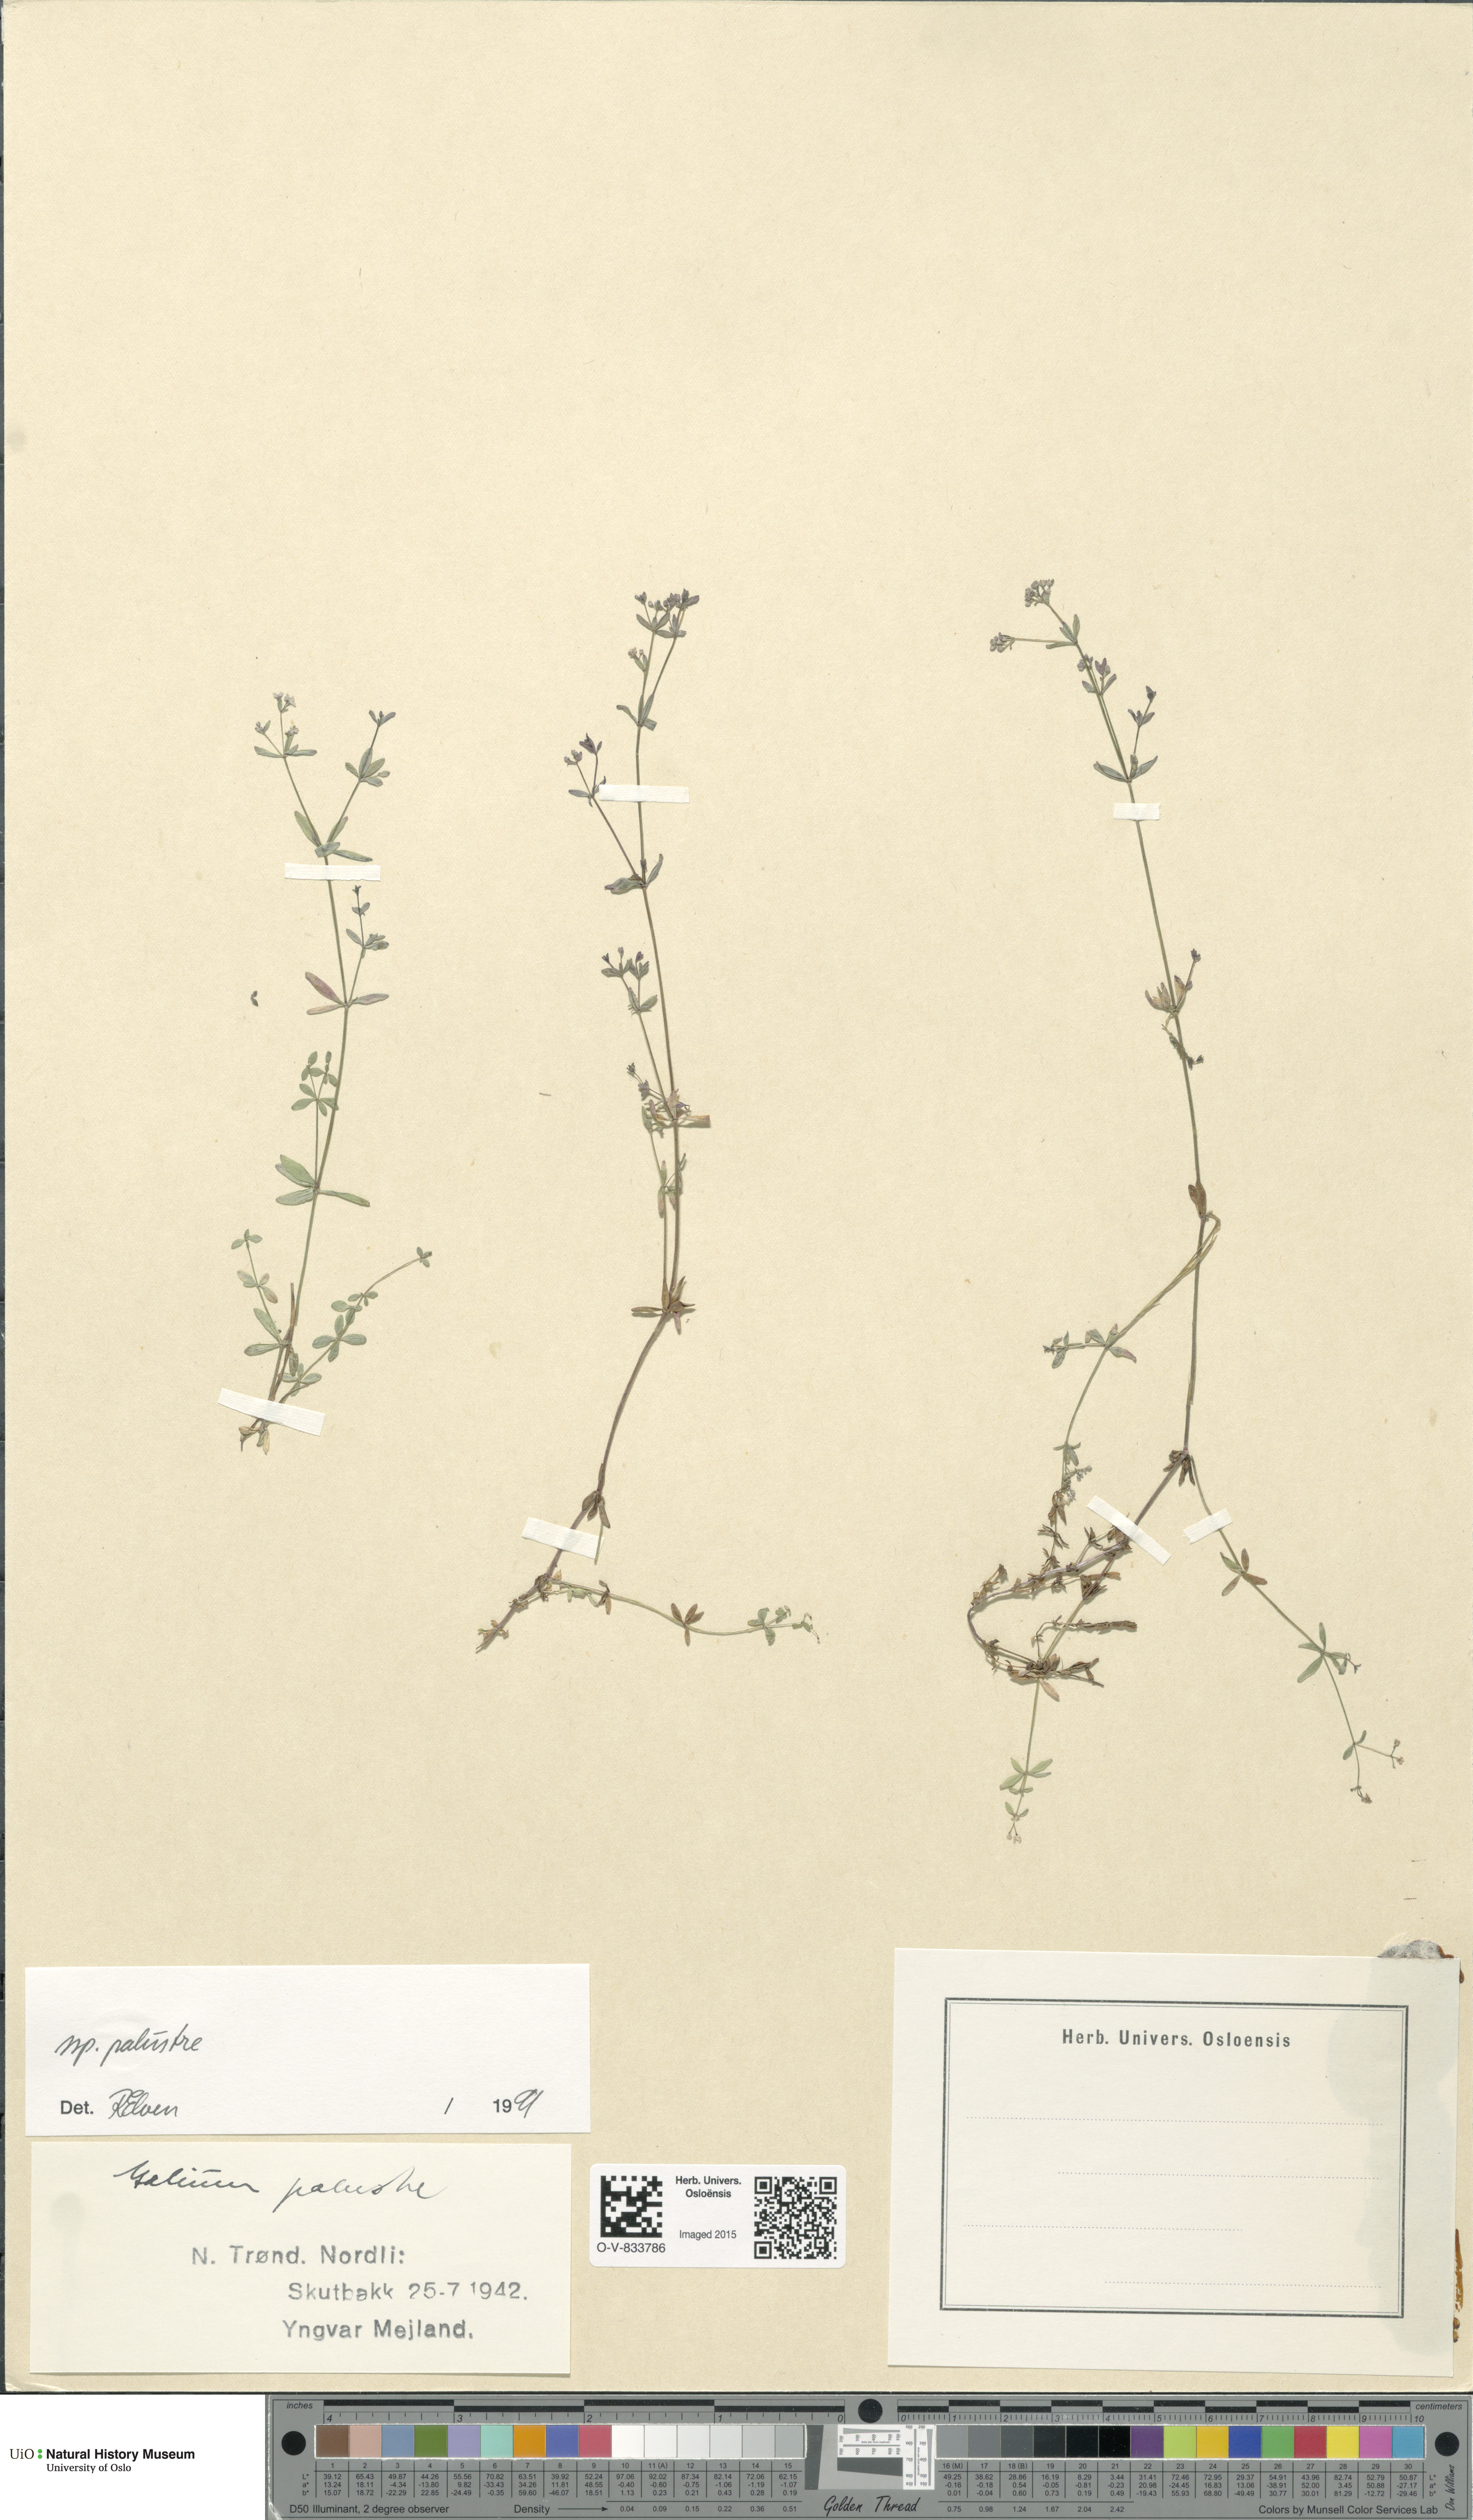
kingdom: Plantae
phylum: Tracheophyta
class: Magnoliopsida
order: Gentianales
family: Rubiaceae
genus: Galium
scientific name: Galium palustre
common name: Common marsh-bedstraw
